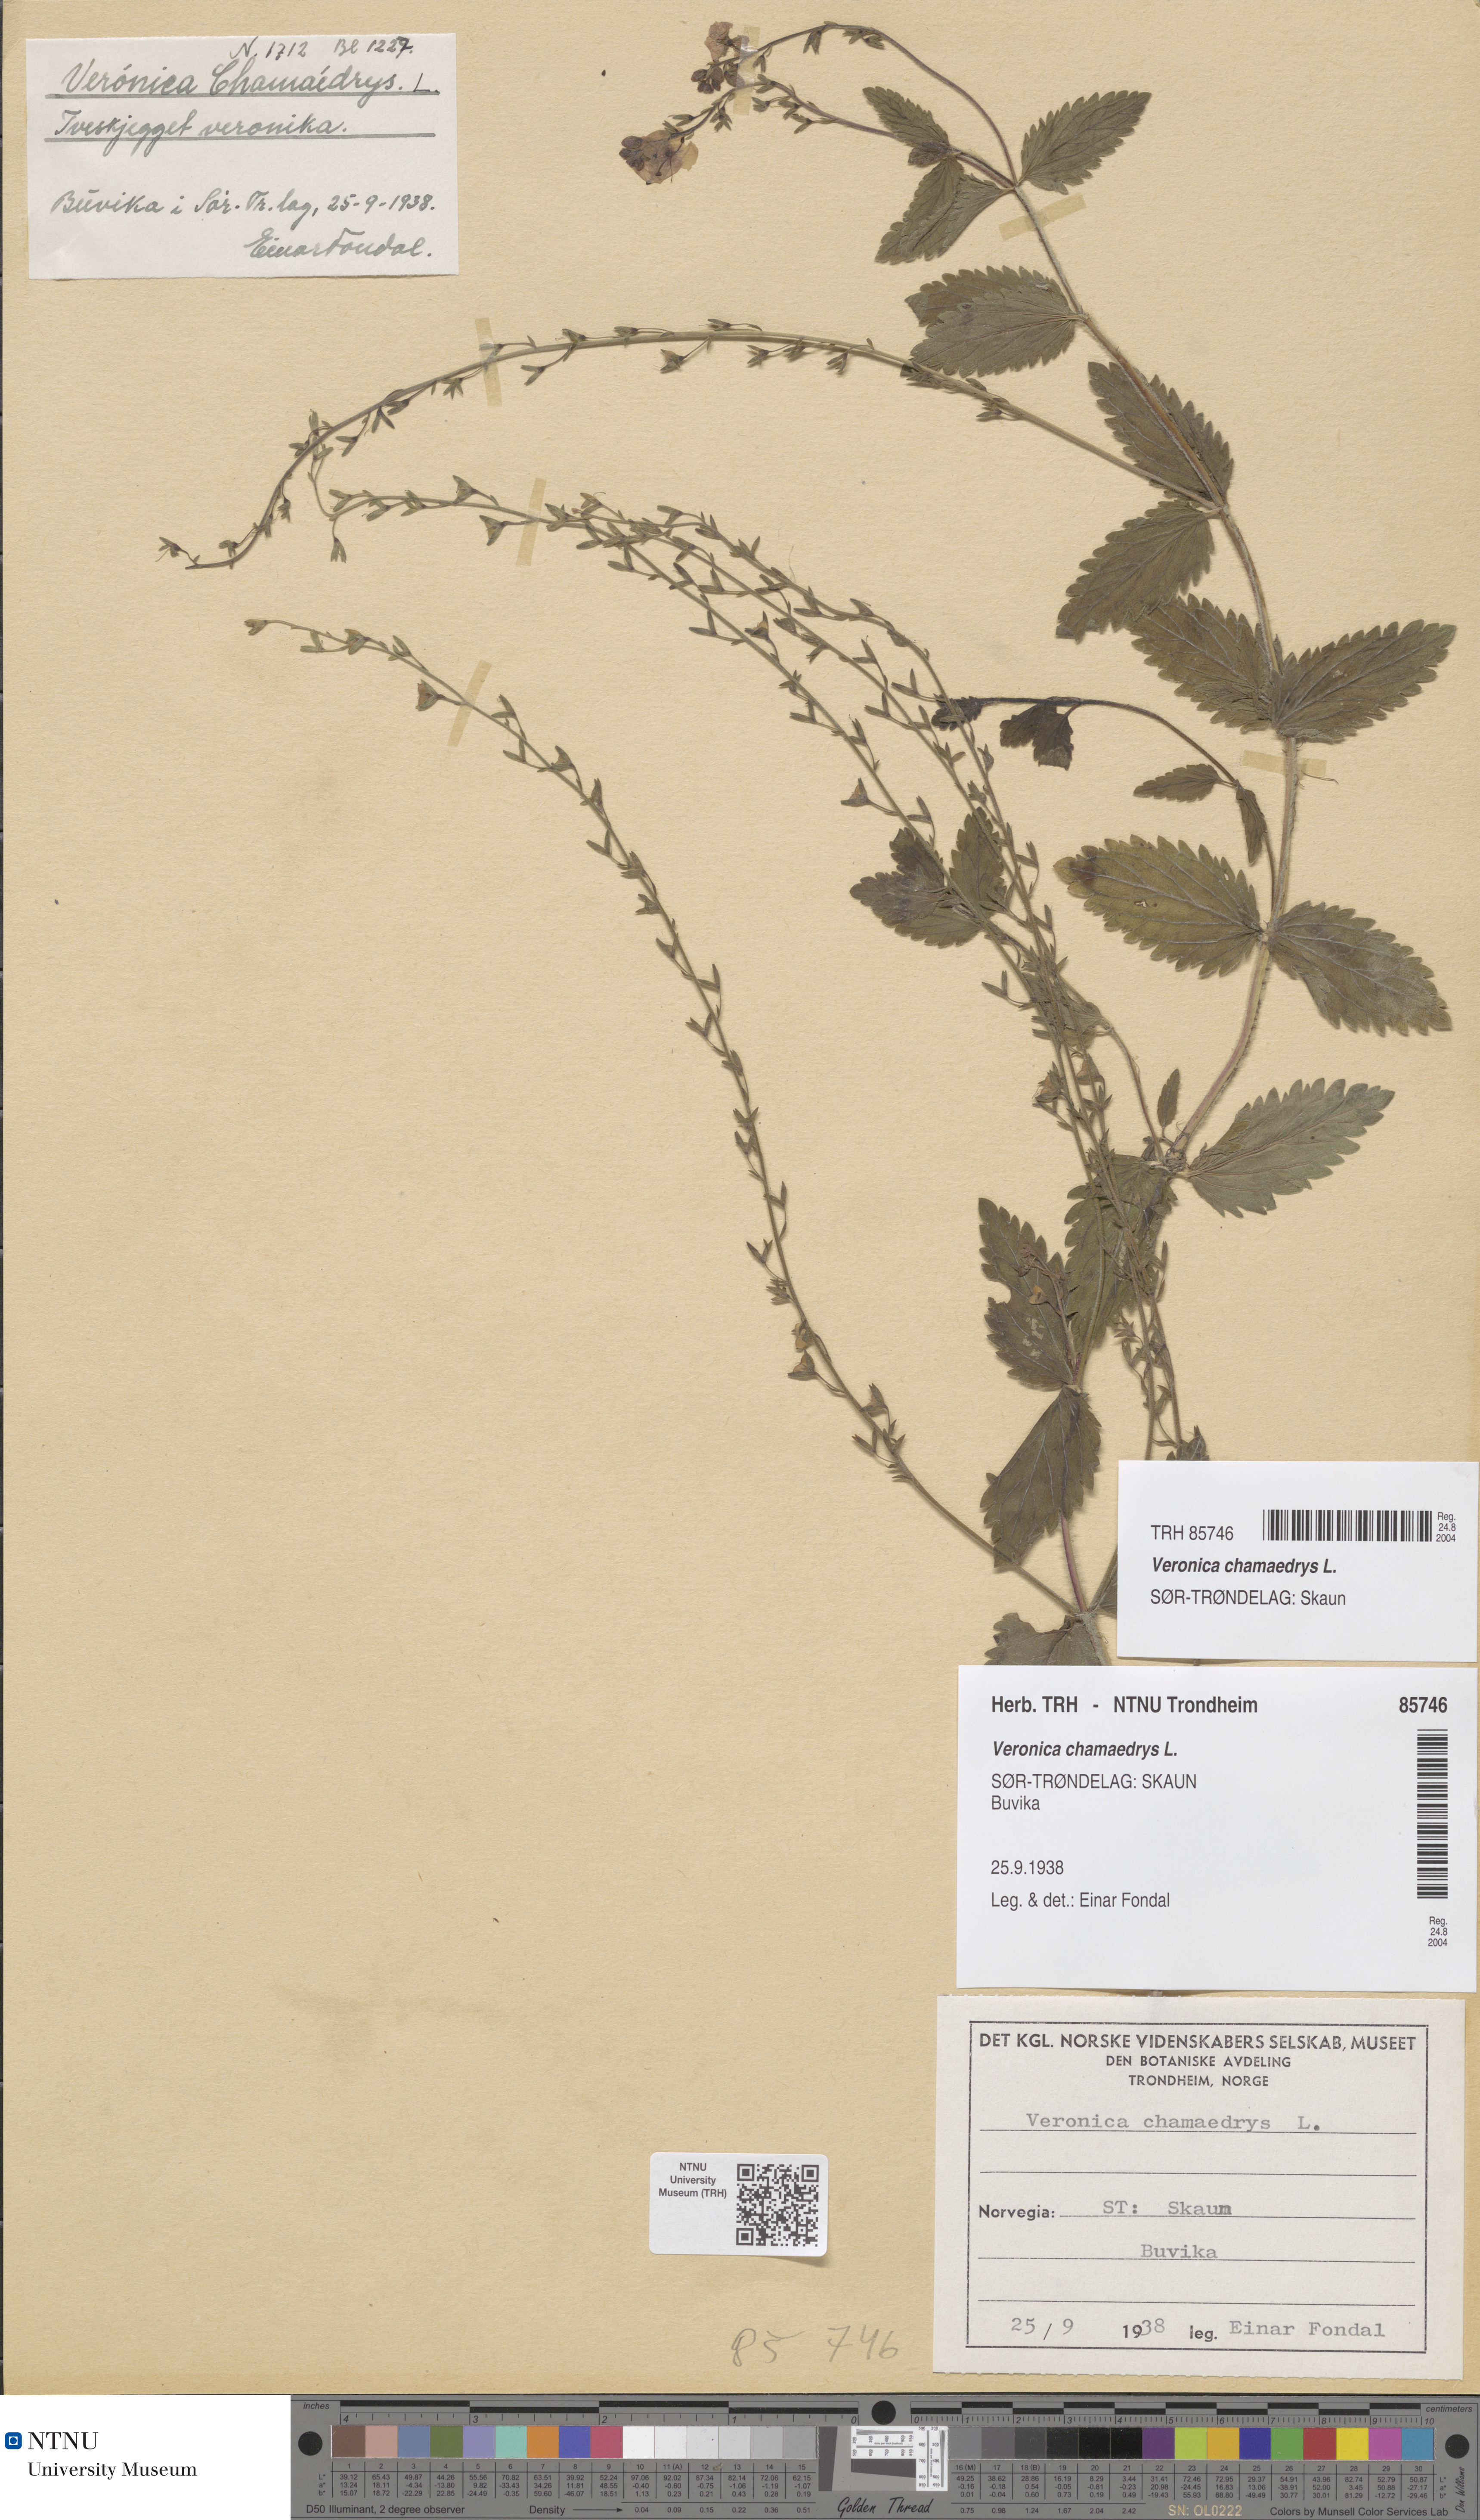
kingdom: Plantae
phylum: Tracheophyta
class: Magnoliopsida
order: Lamiales
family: Plantaginaceae
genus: Veronica
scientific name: Veronica chamaedrys
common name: Germander speedwell
